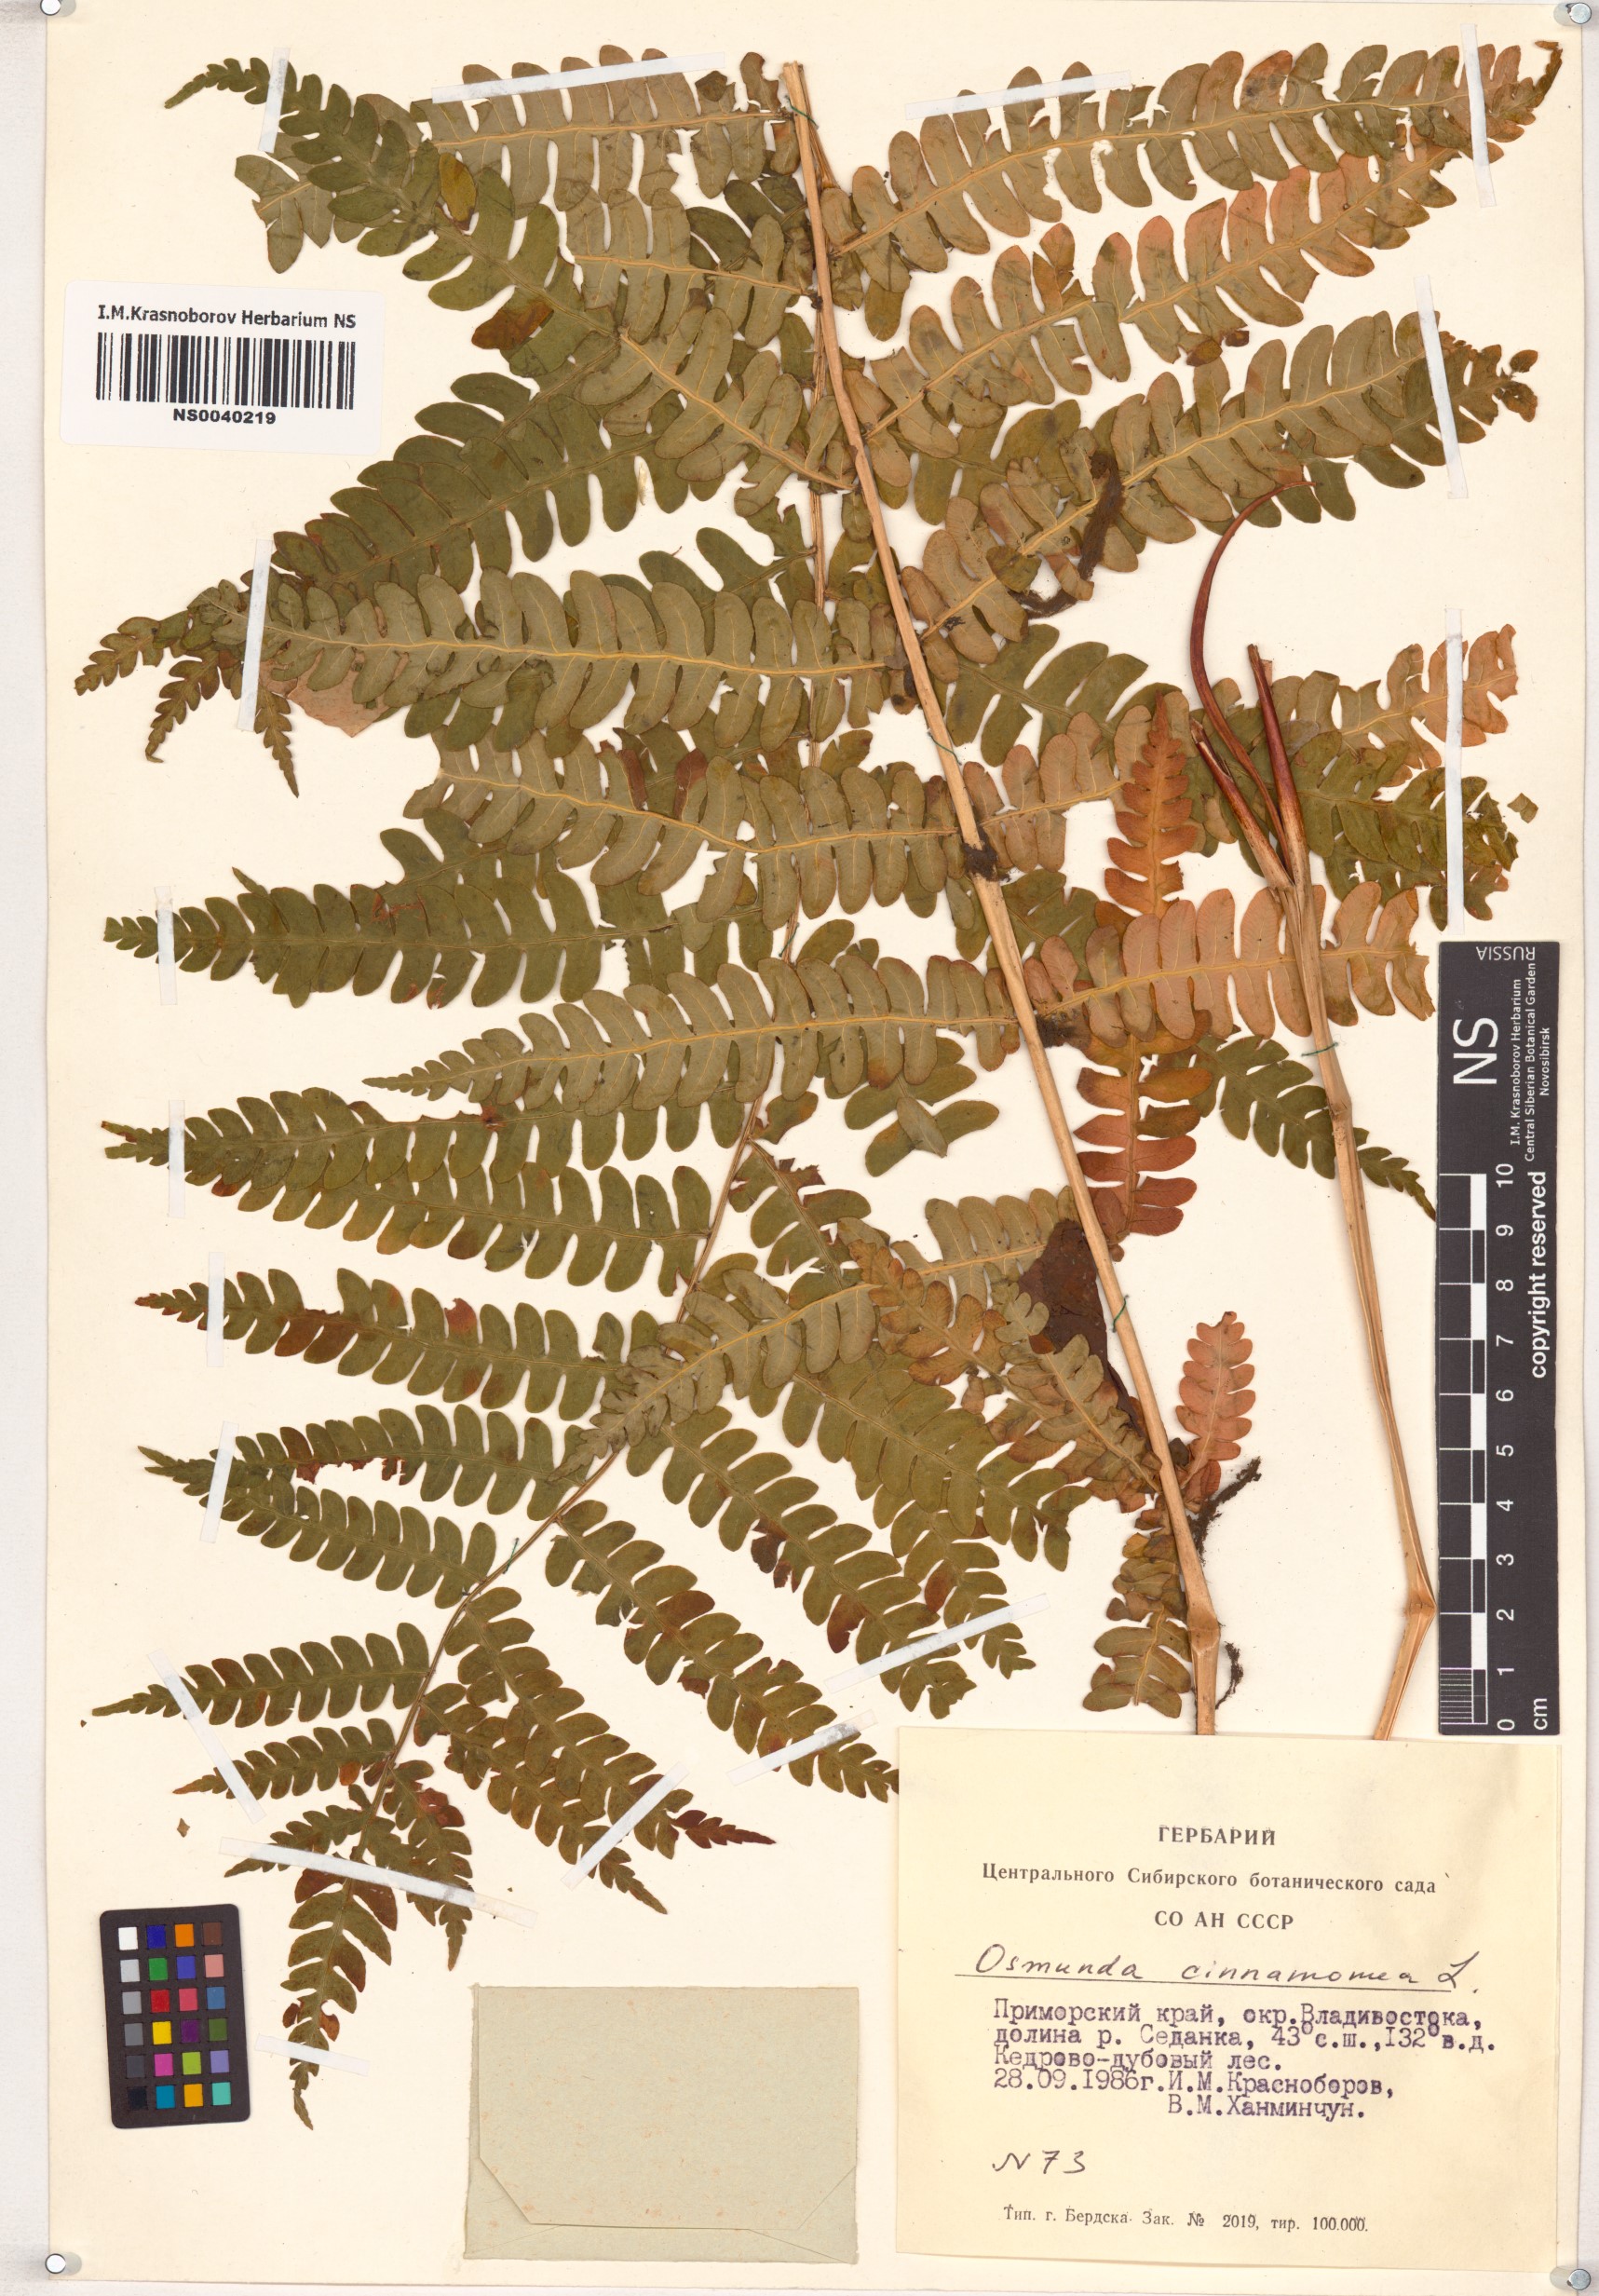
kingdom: Plantae
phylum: Tracheophyta
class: Polypodiopsida
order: Osmundales
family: Osmundaceae
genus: Osmundastrum
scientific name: Osmundastrum cinnamomeum
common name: Cinnamon fern
